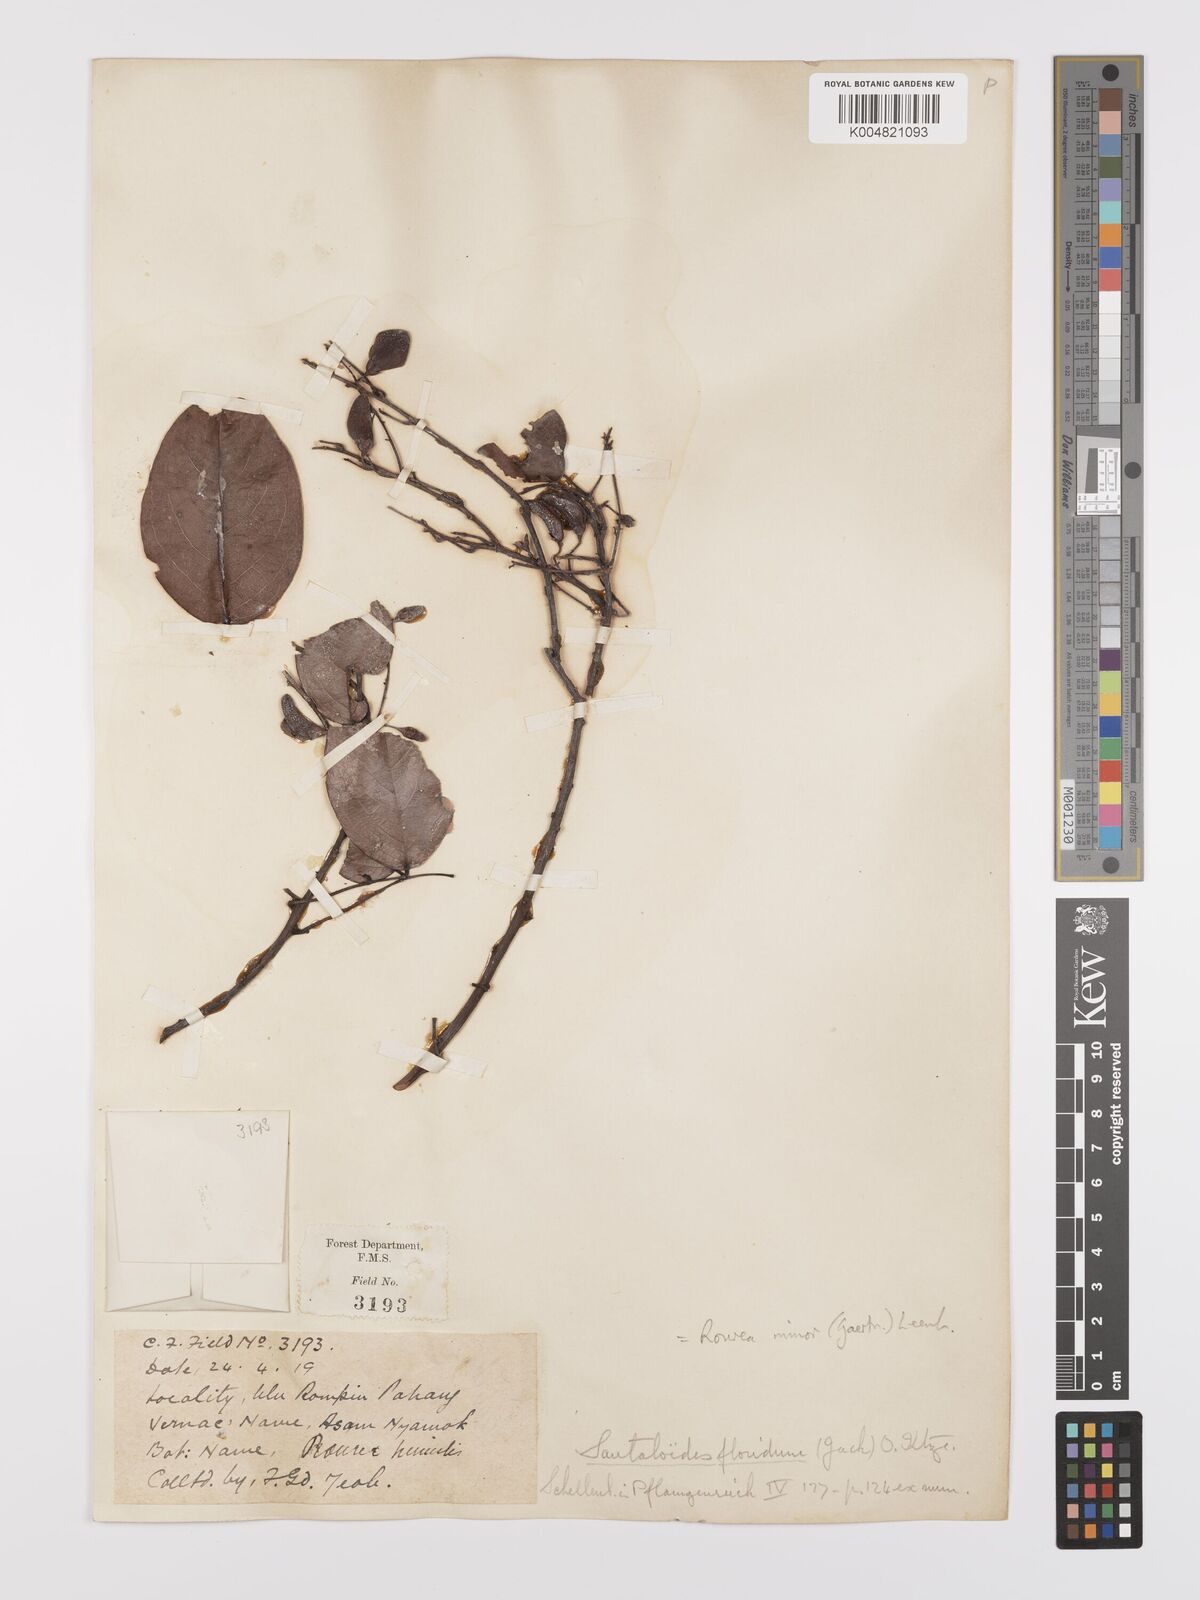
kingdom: Plantae
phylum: Tracheophyta
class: Magnoliopsida
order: Oxalidales
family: Connaraceae
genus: Rourea
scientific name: Rourea minor
